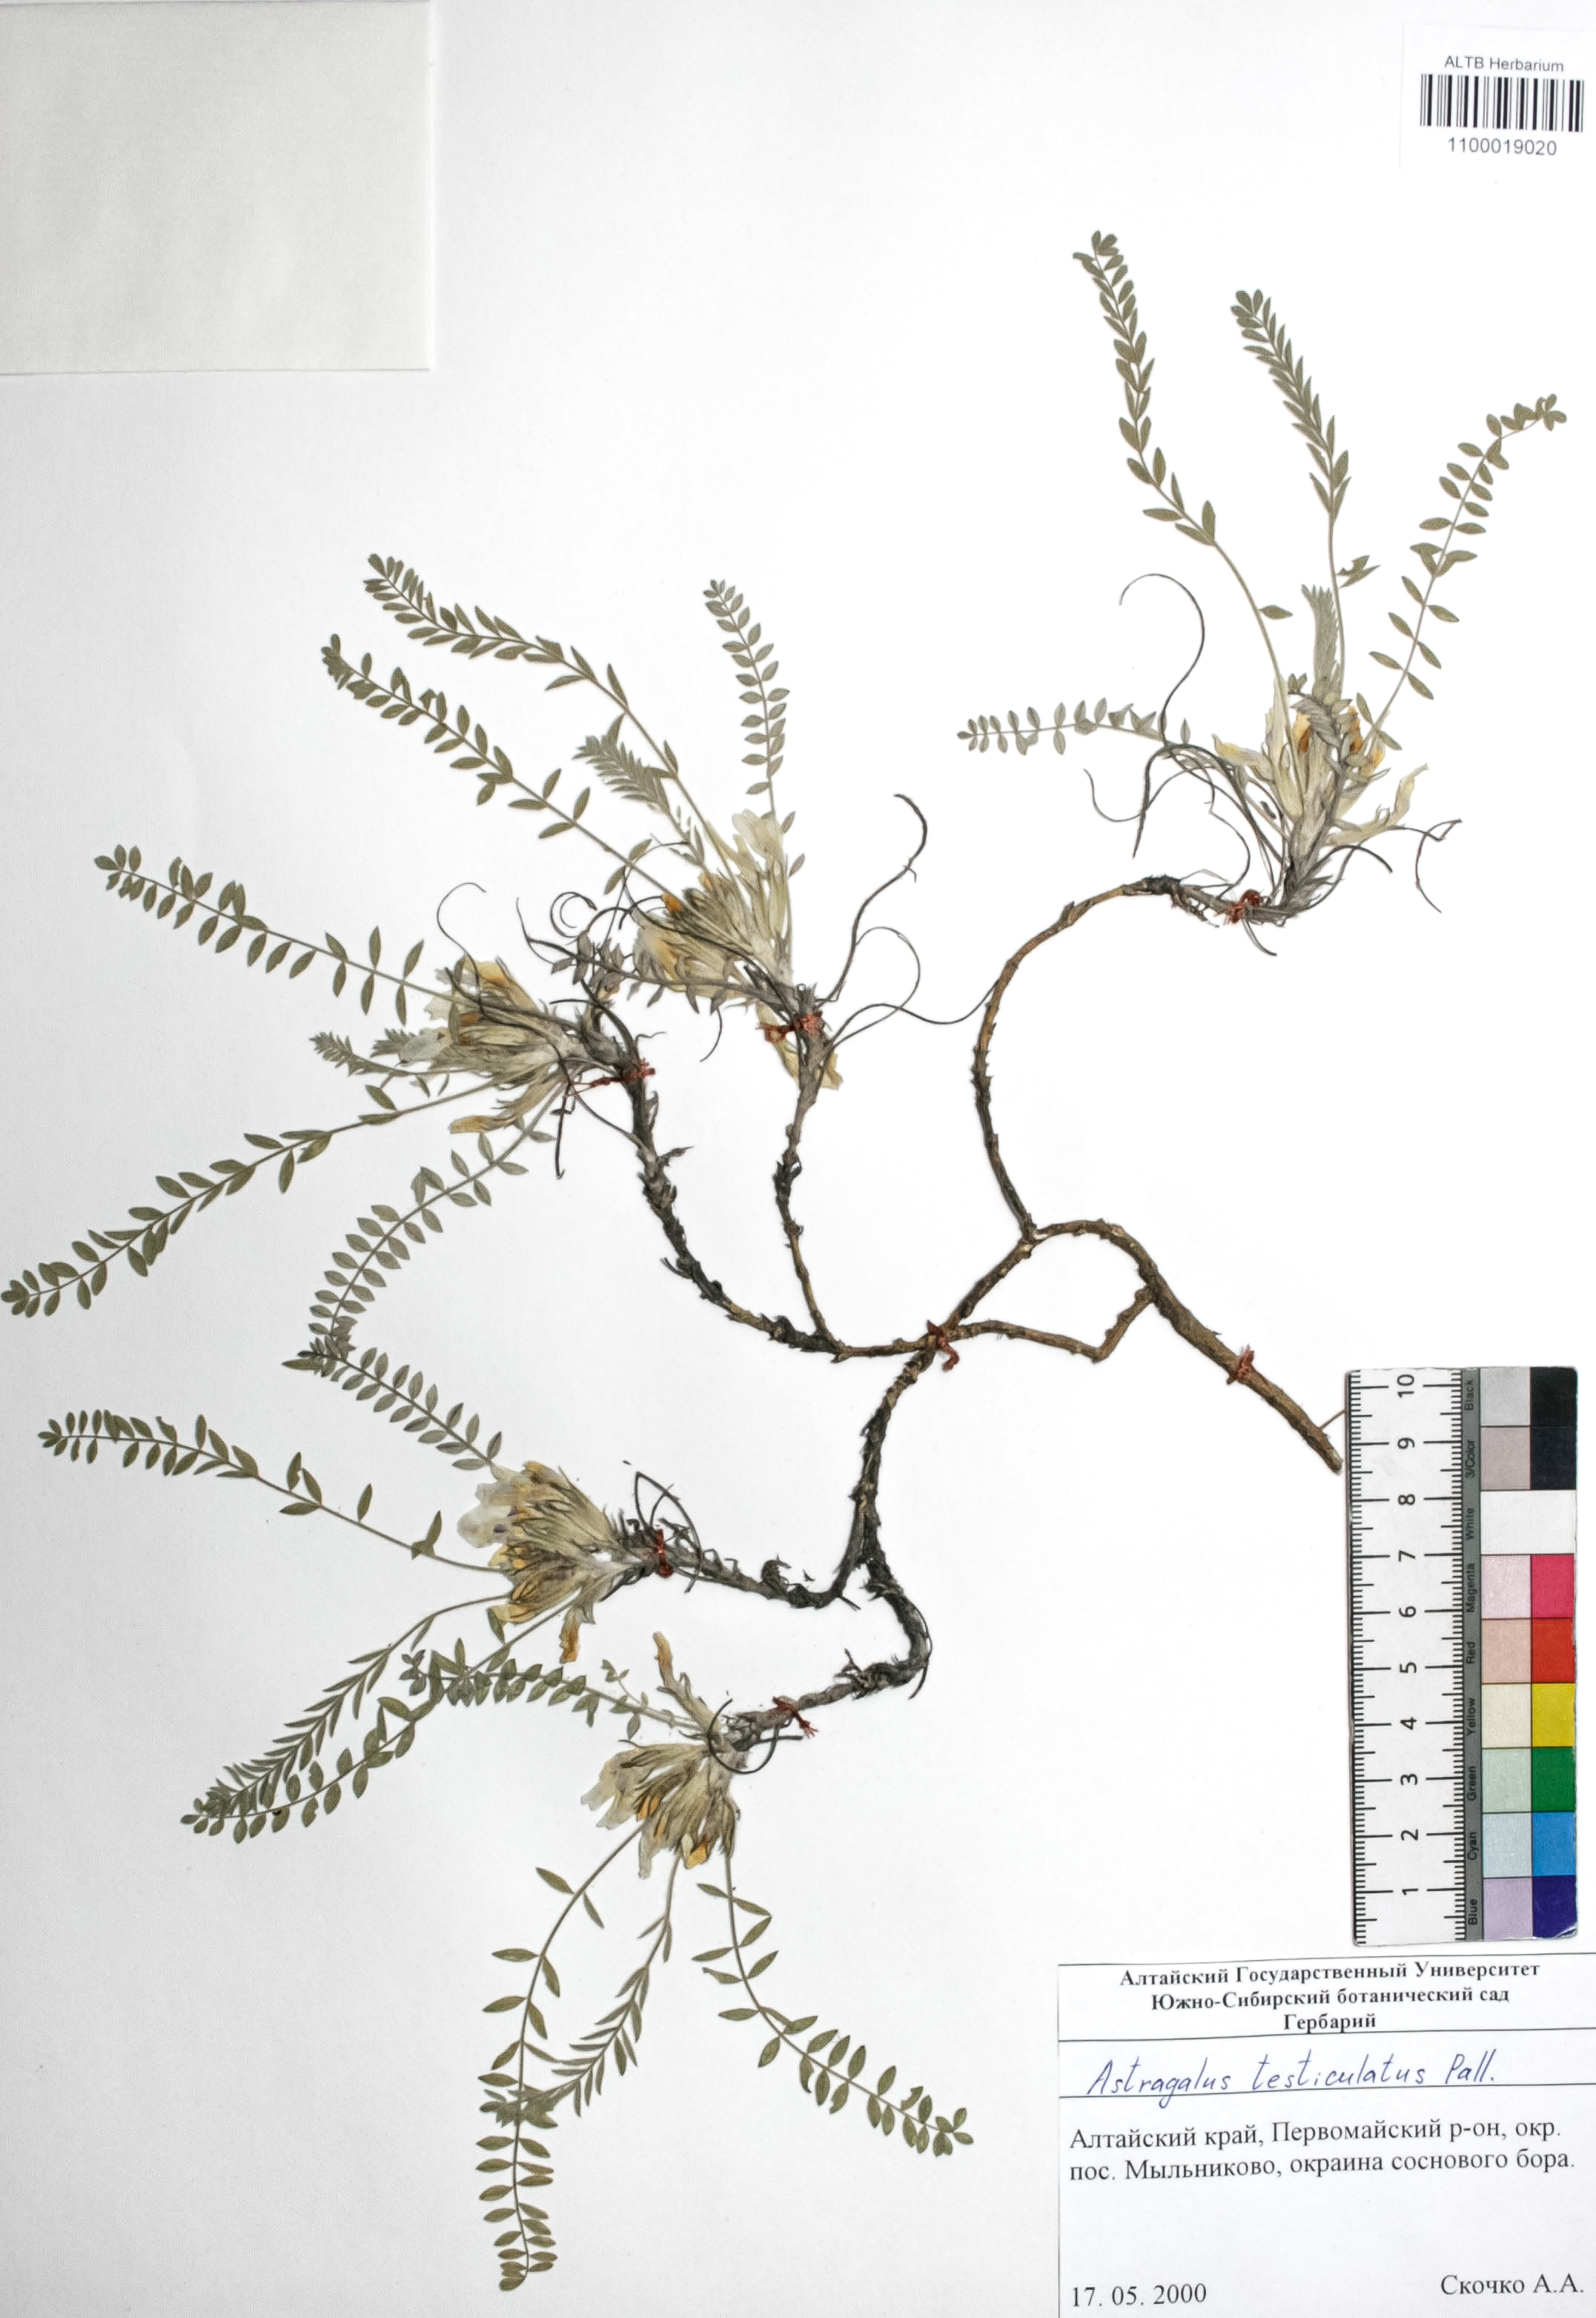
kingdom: Plantae
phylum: Tracheophyta
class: Magnoliopsida
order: Fabales
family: Fabaceae
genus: Astragalus
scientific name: Astragalus testiculatus
